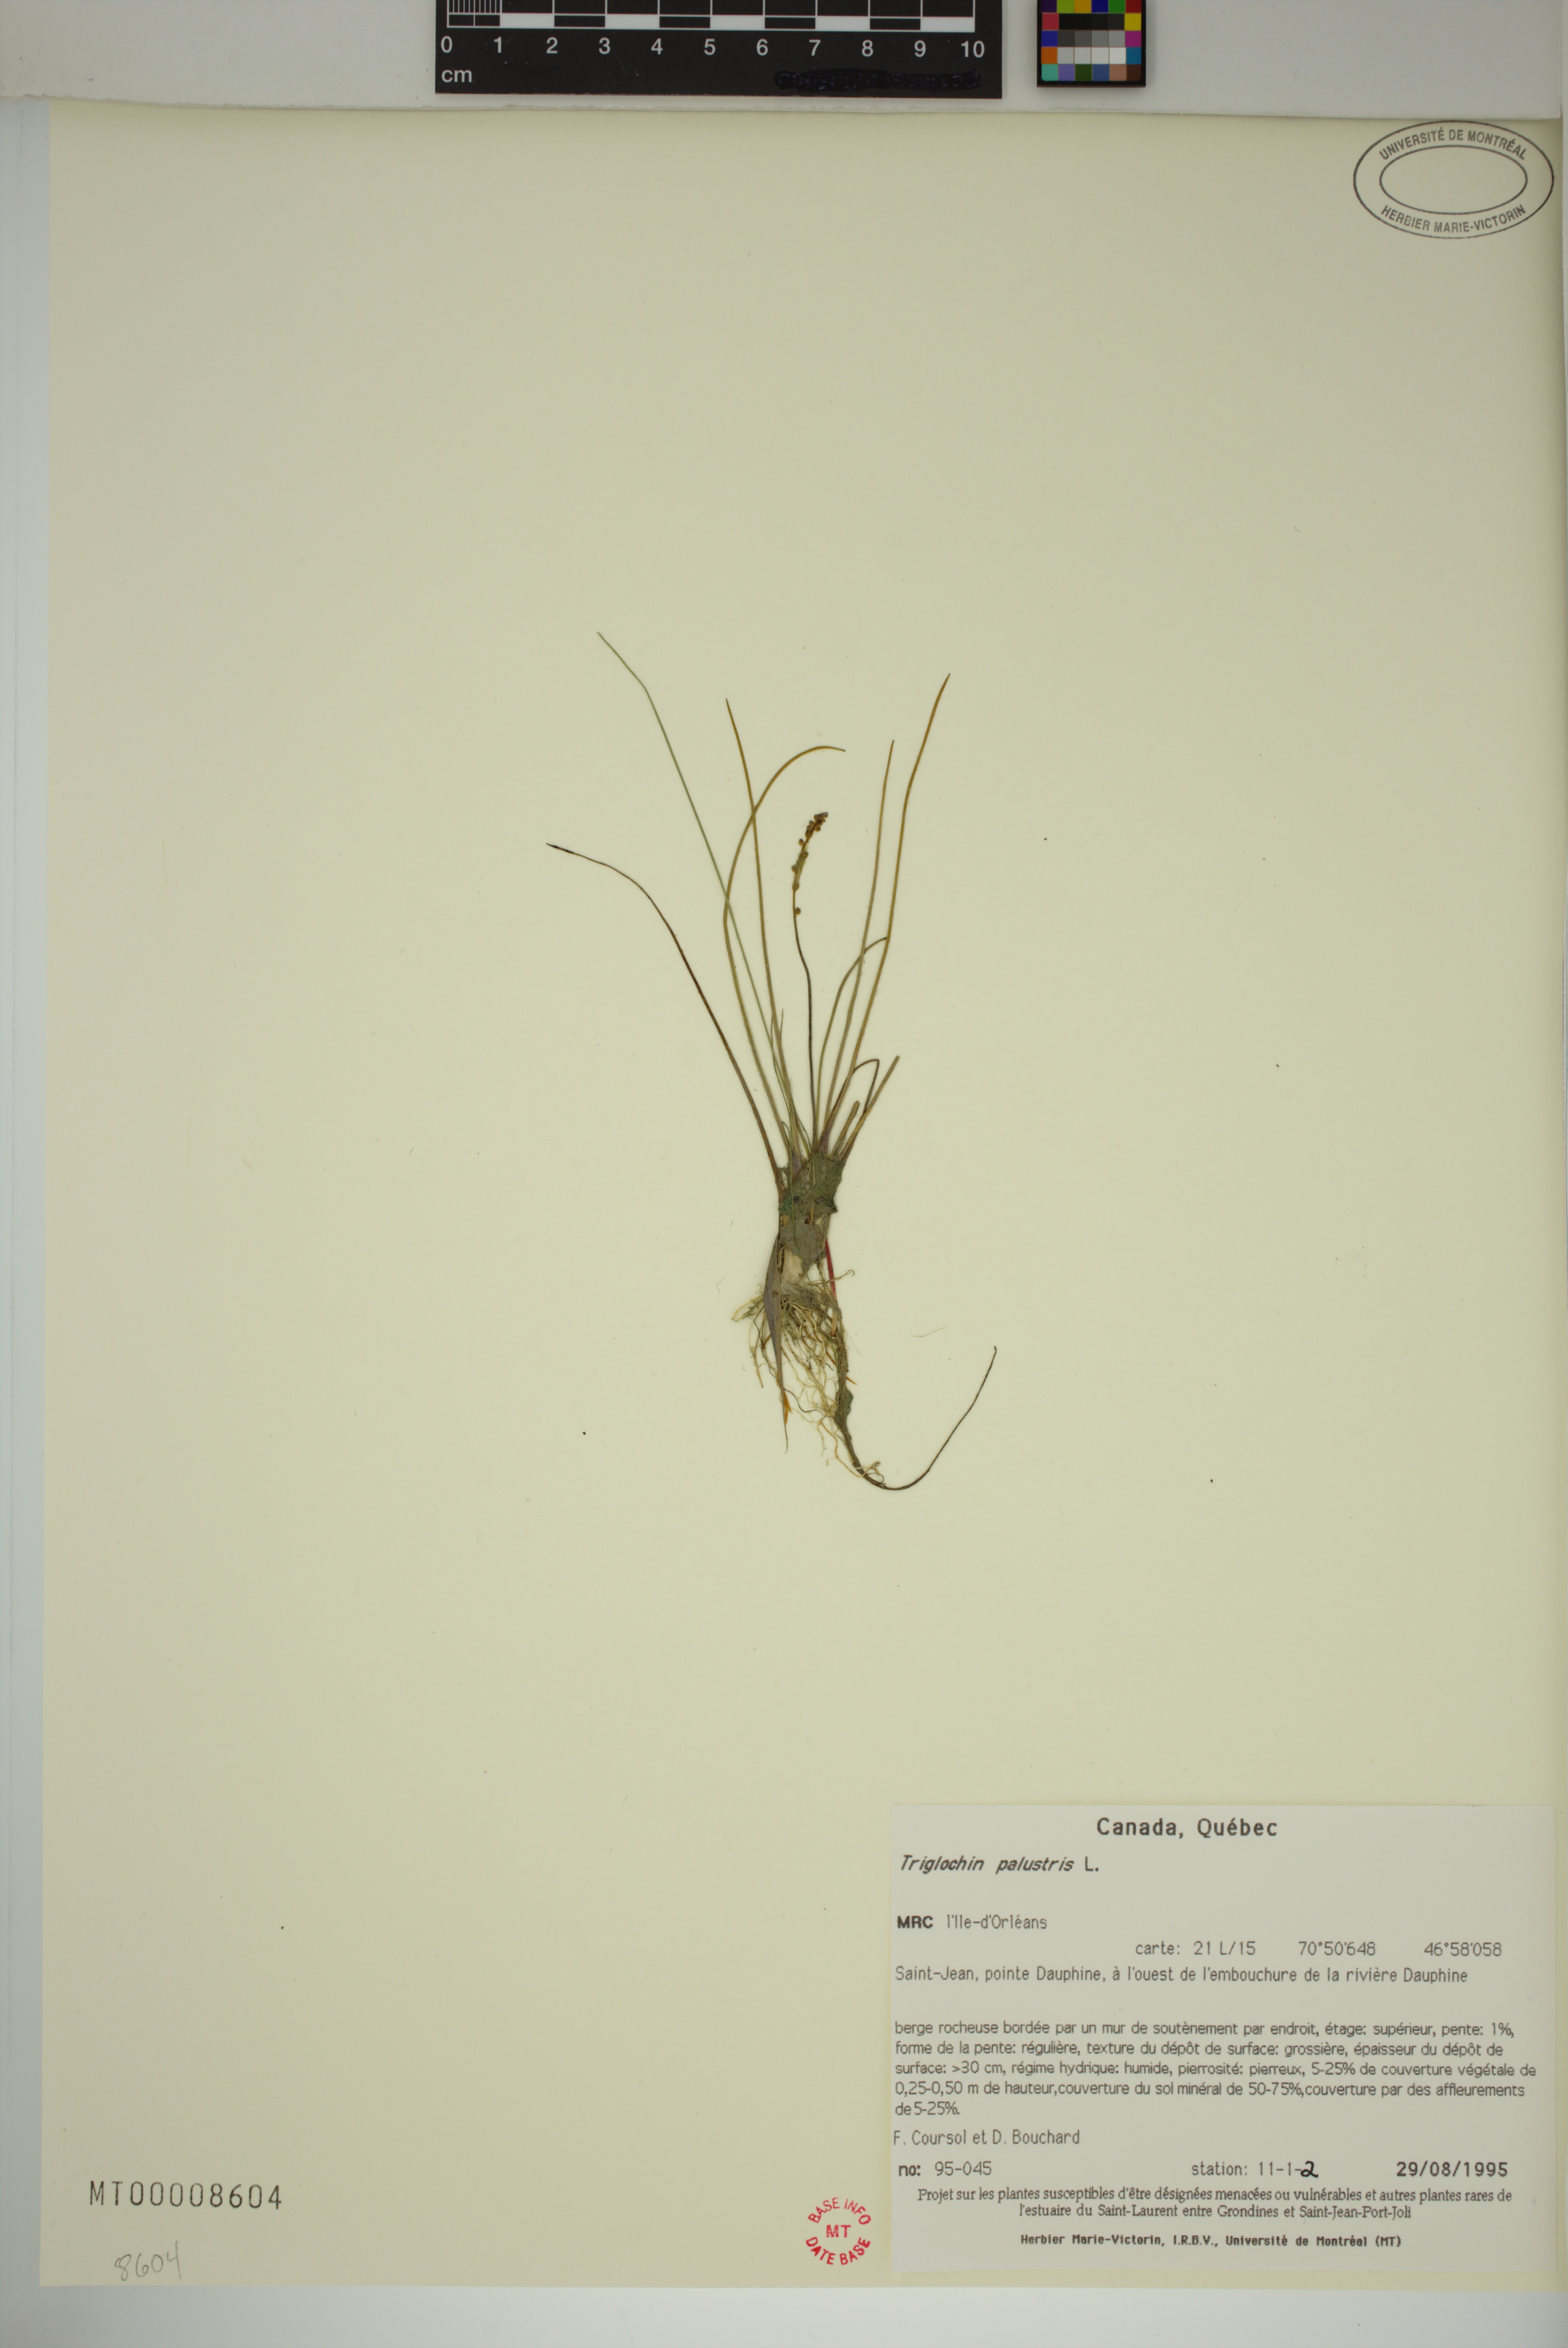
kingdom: Plantae
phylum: Tracheophyta
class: Liliopsida
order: Alismatales
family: Juncaginaceae
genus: Triglochin
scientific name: Triglochin palustris
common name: Marsh arrowgrass
